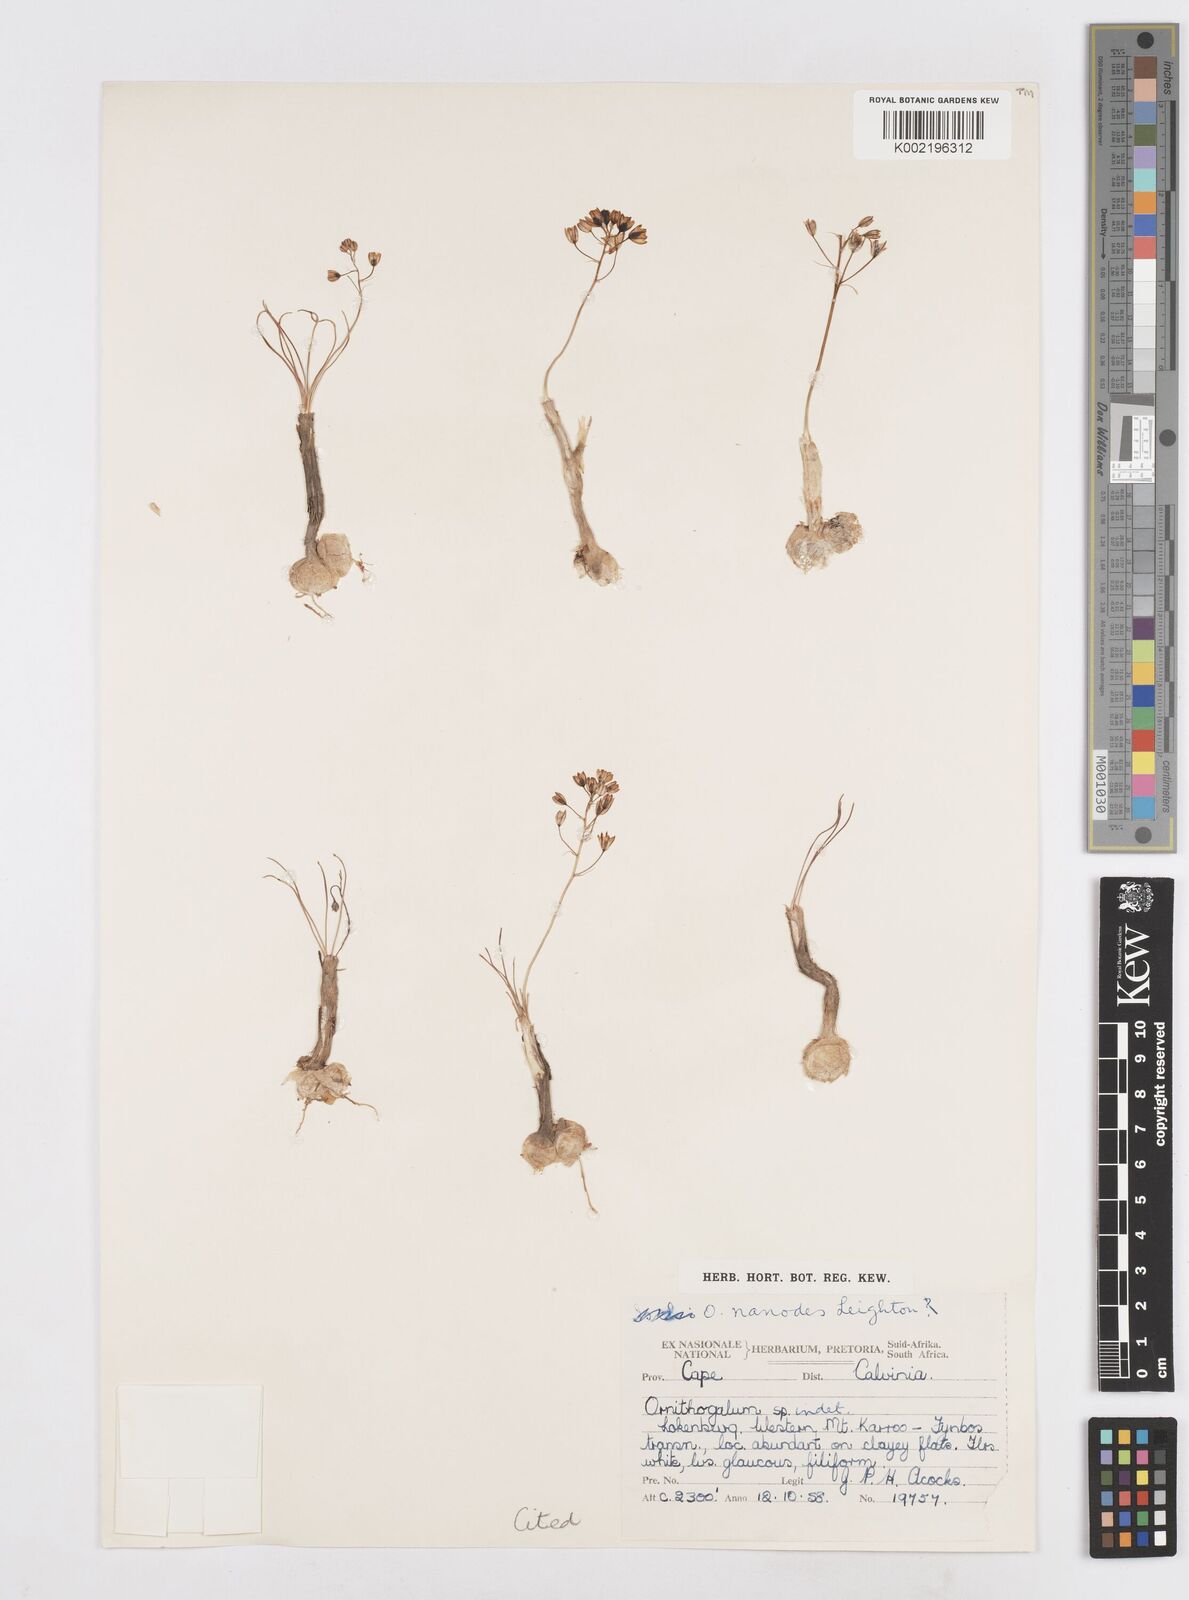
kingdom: Plantae
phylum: Tracheophyta
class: Liliopsida
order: Asparagales
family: Asparagaceae
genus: Ornithogalum
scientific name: Ornithogalum nanodes
